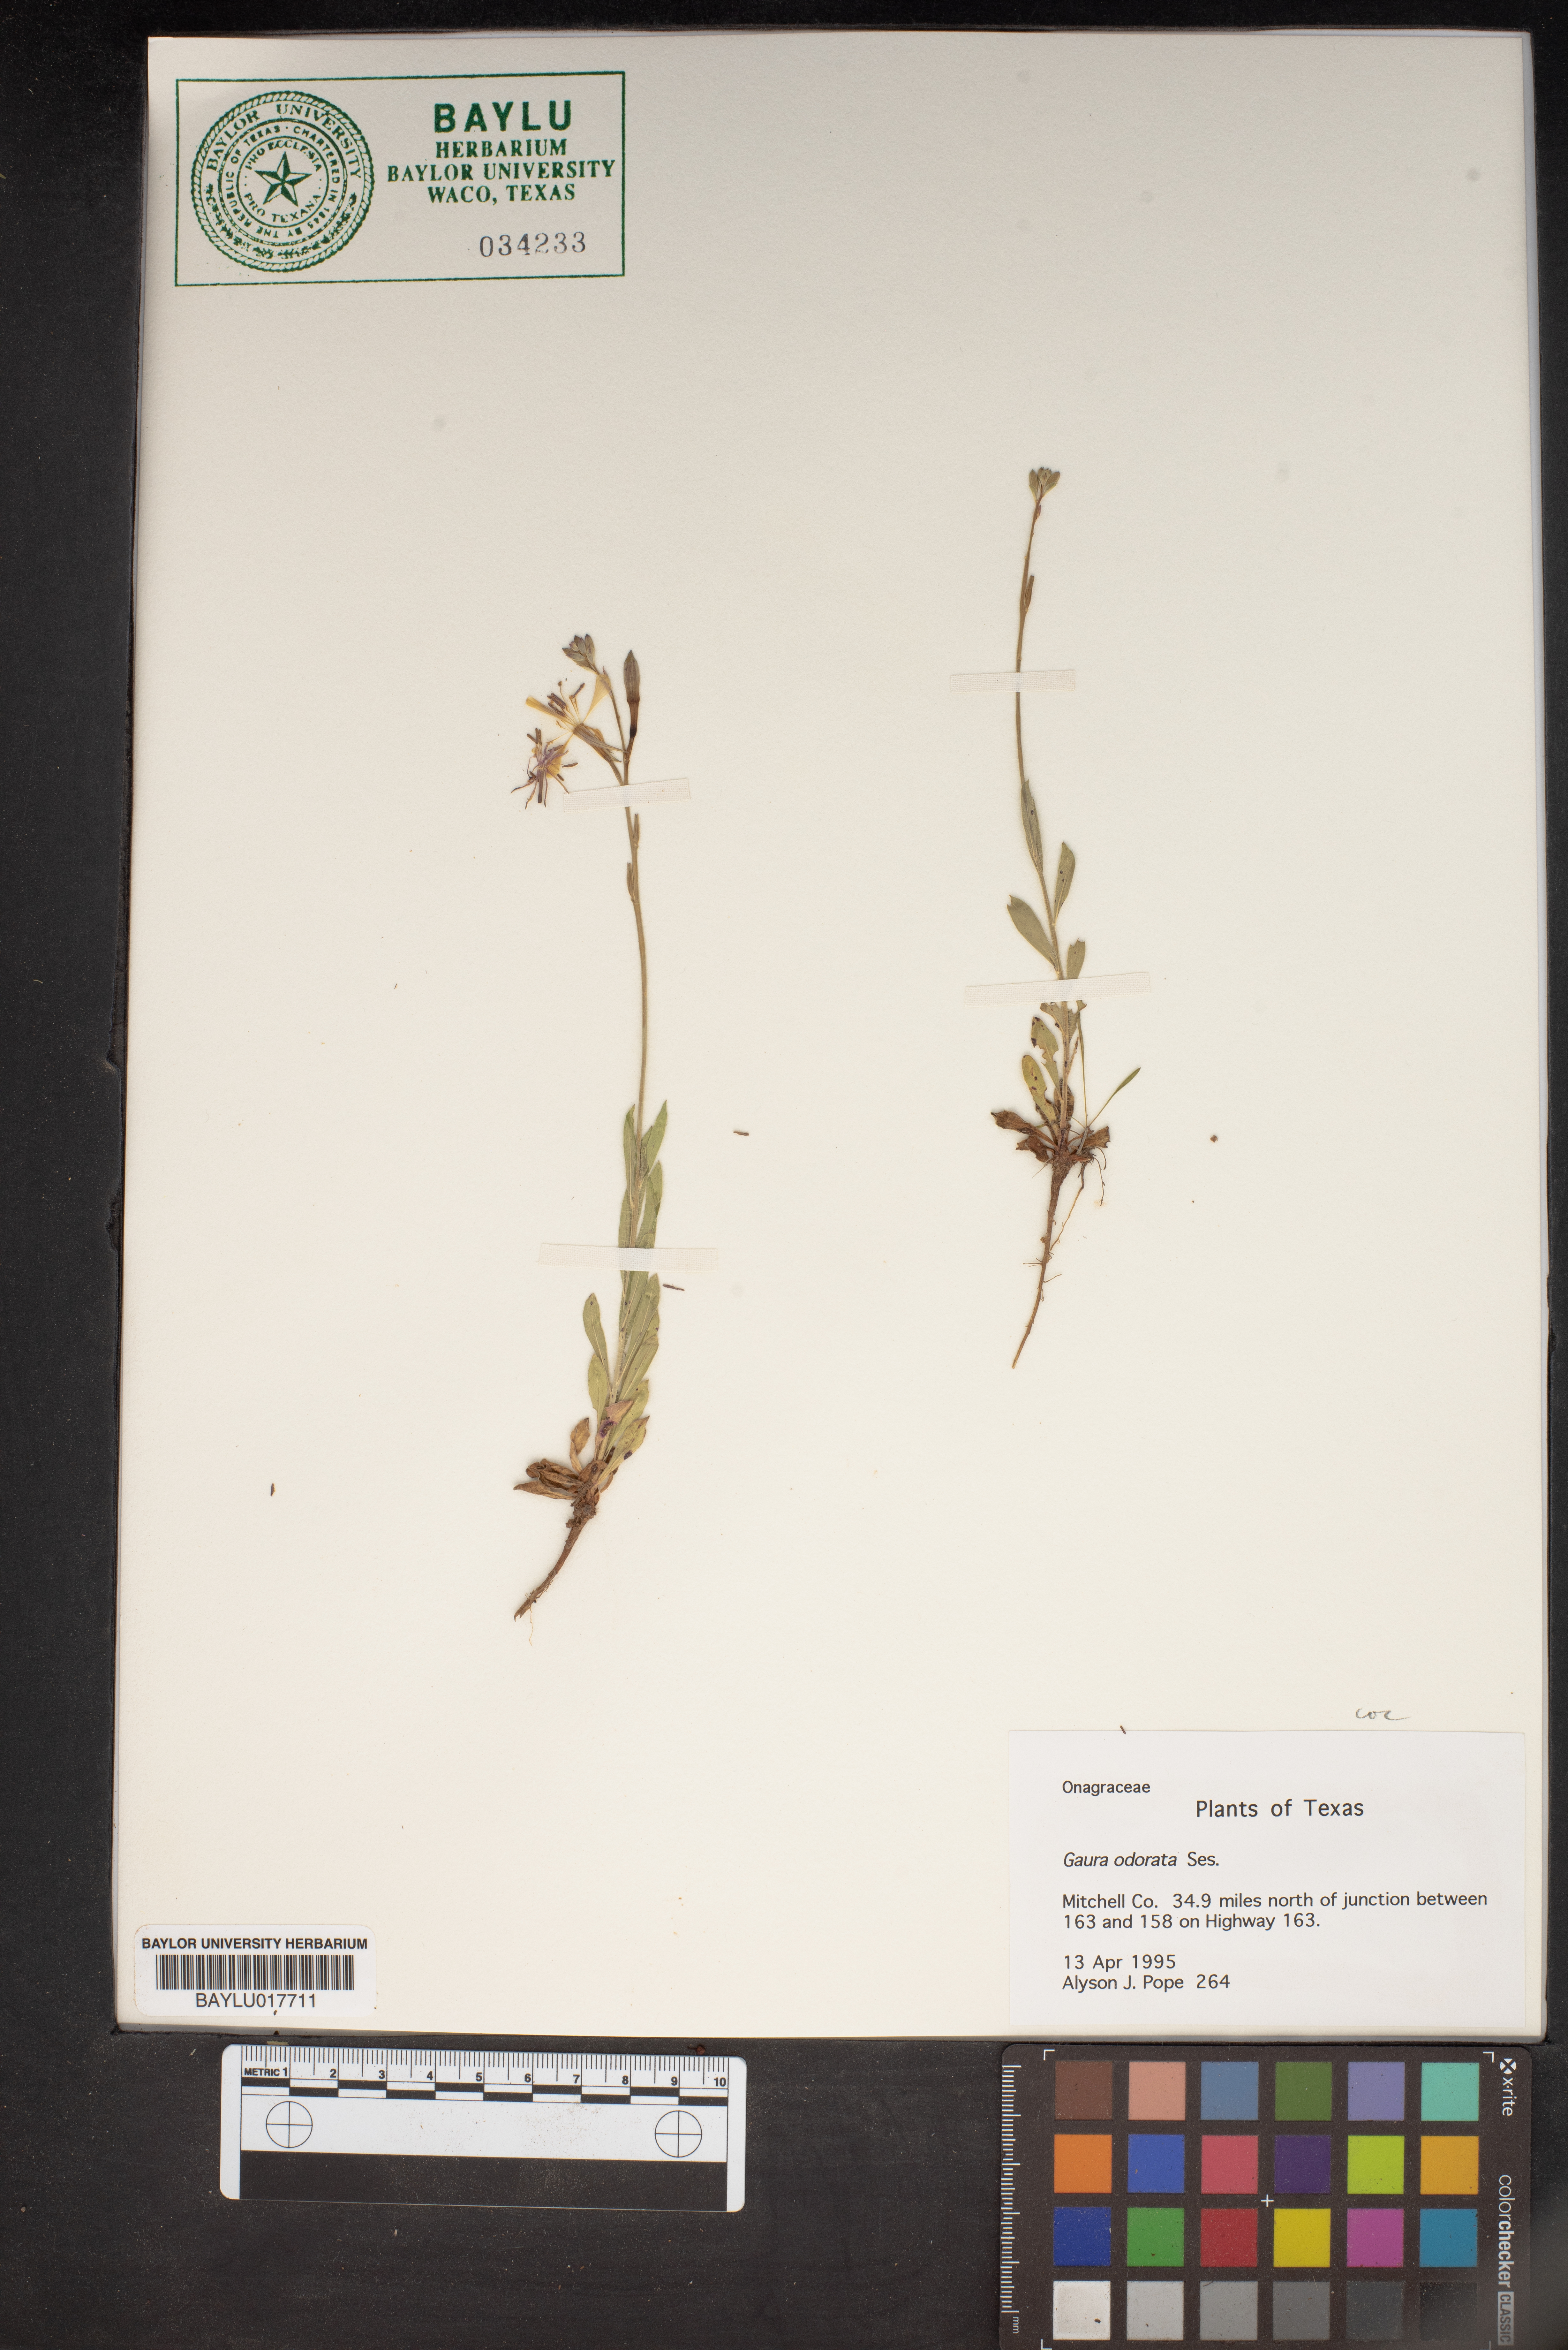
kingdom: Plantae
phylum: Tracheophyta
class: Magnoliopsida
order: Myrtales
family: Onagraceae
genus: Oenothera
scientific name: Oenothera
